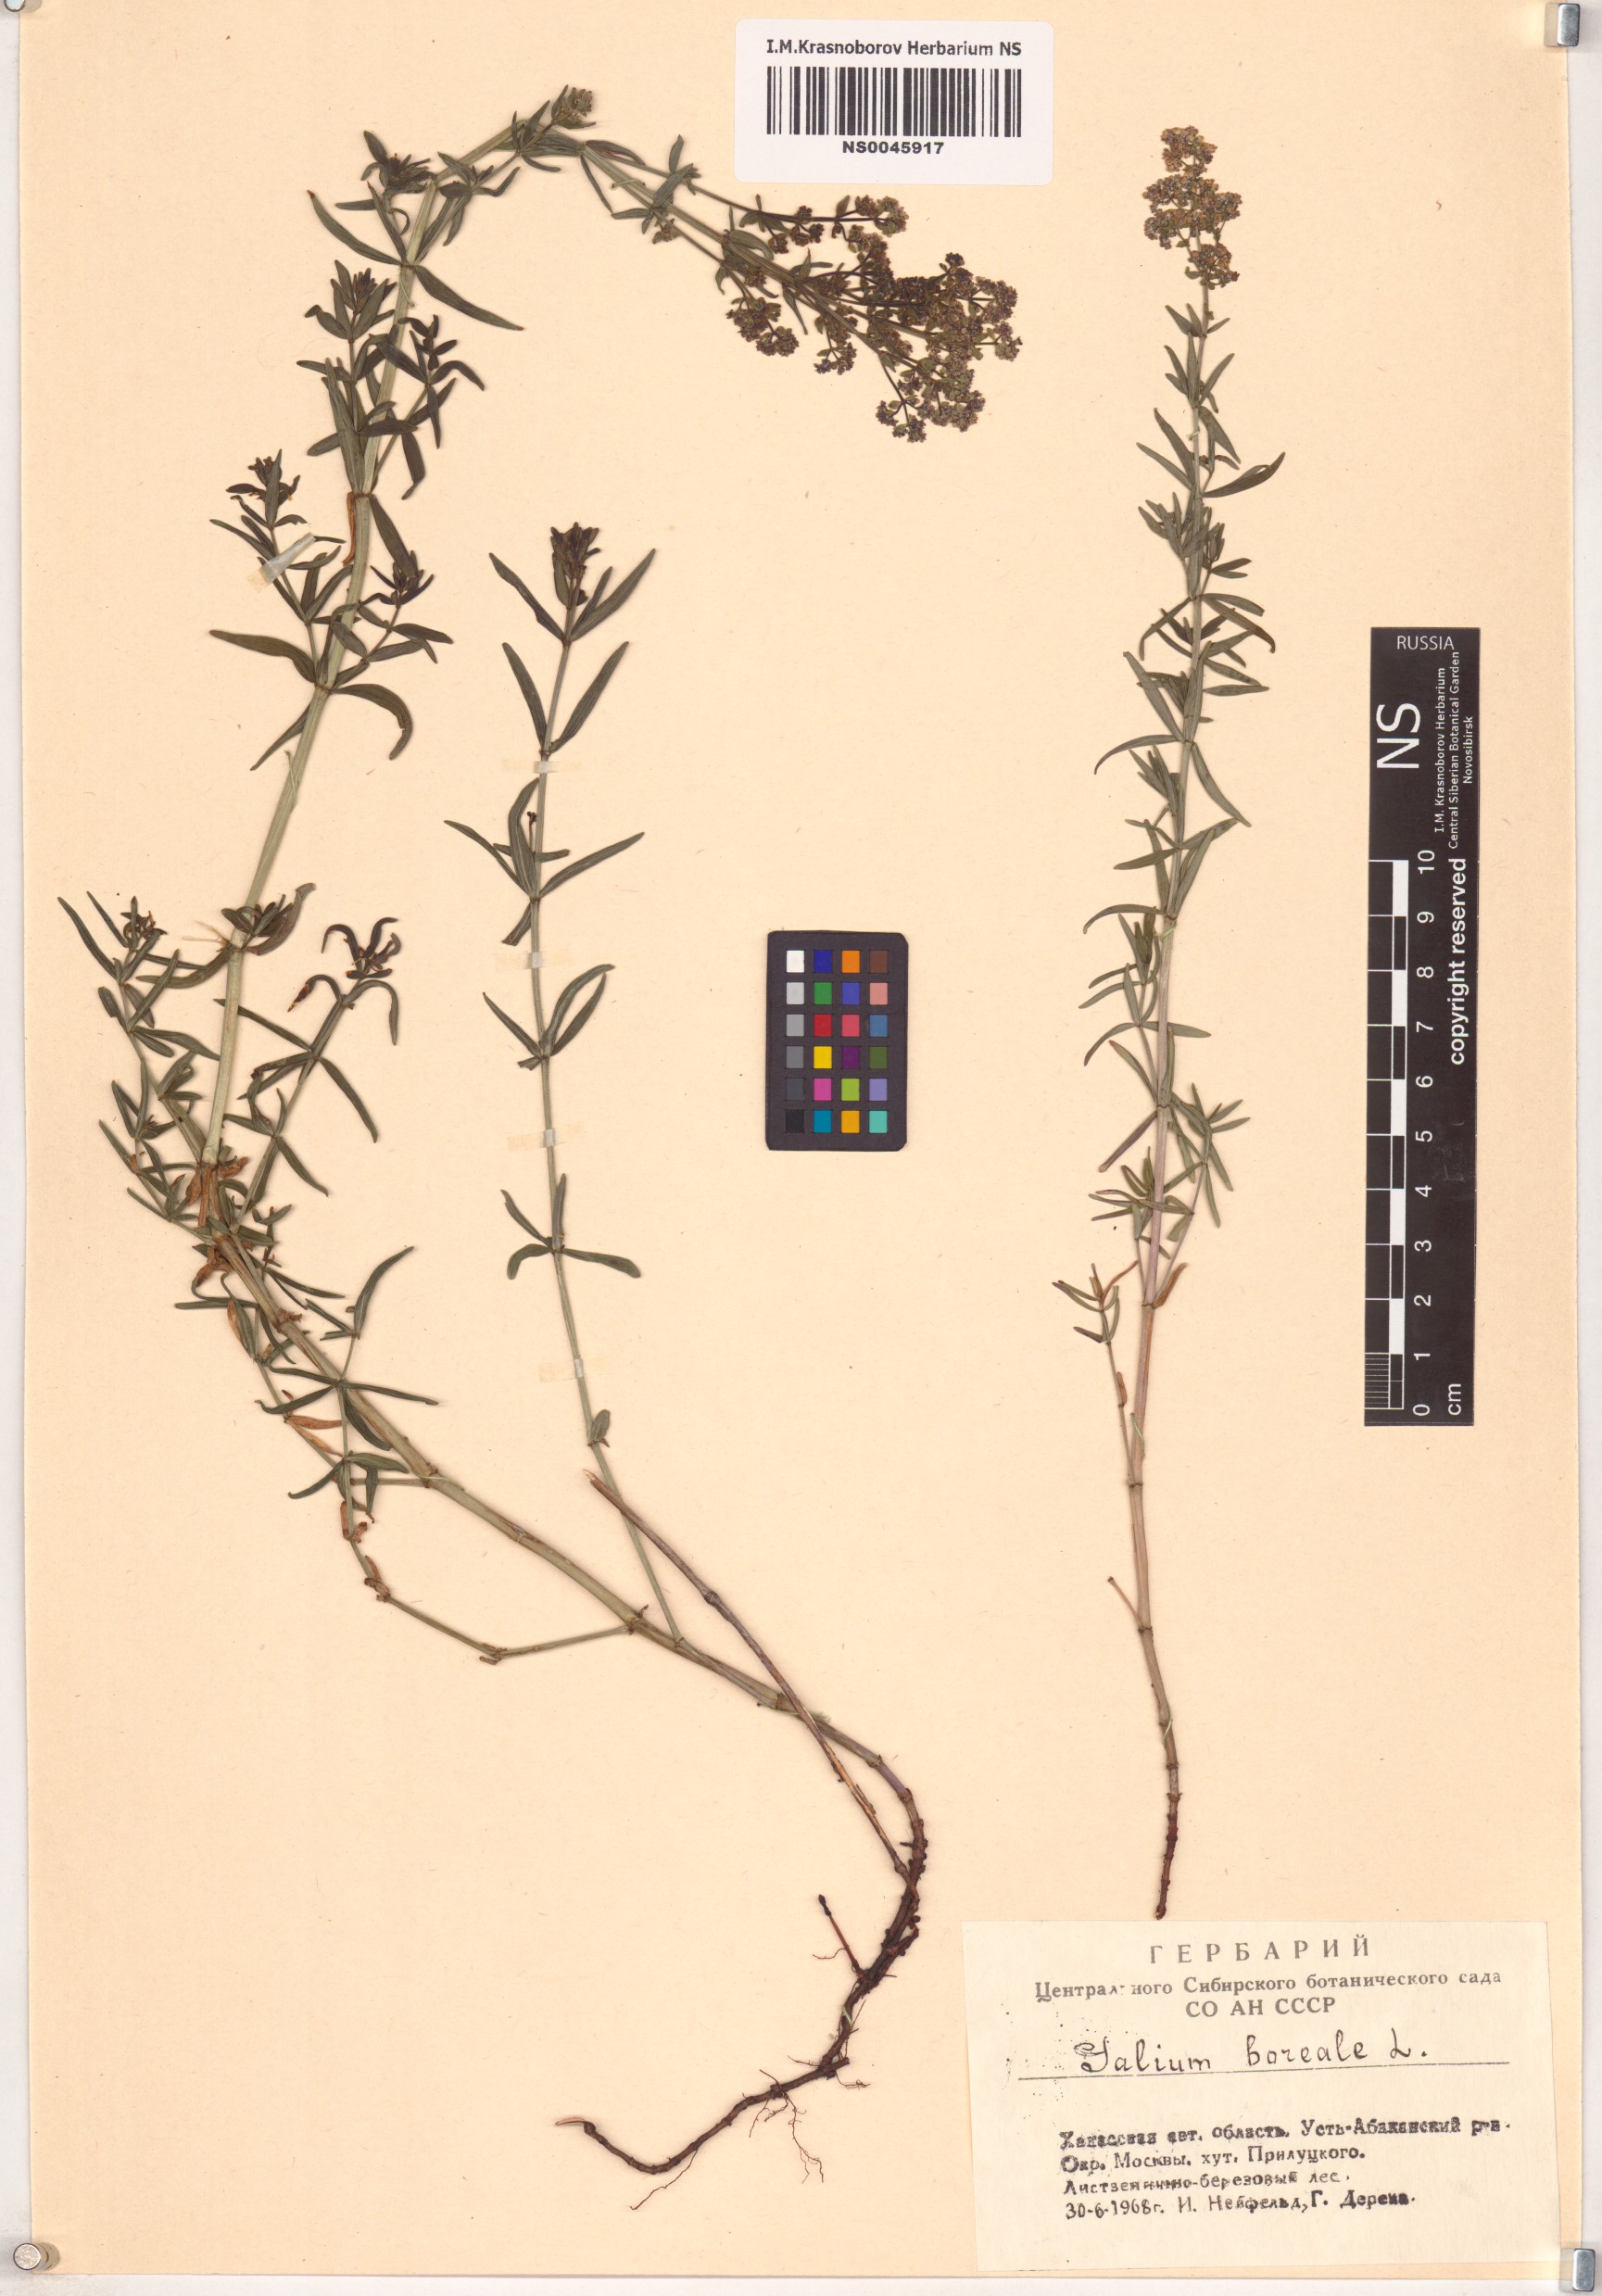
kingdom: Plantae
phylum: Tracheophyta
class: Magnoliopsida
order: Gentianales
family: Rubiaceae
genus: Galium
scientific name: Galium boreale
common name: Northern bedstraw
